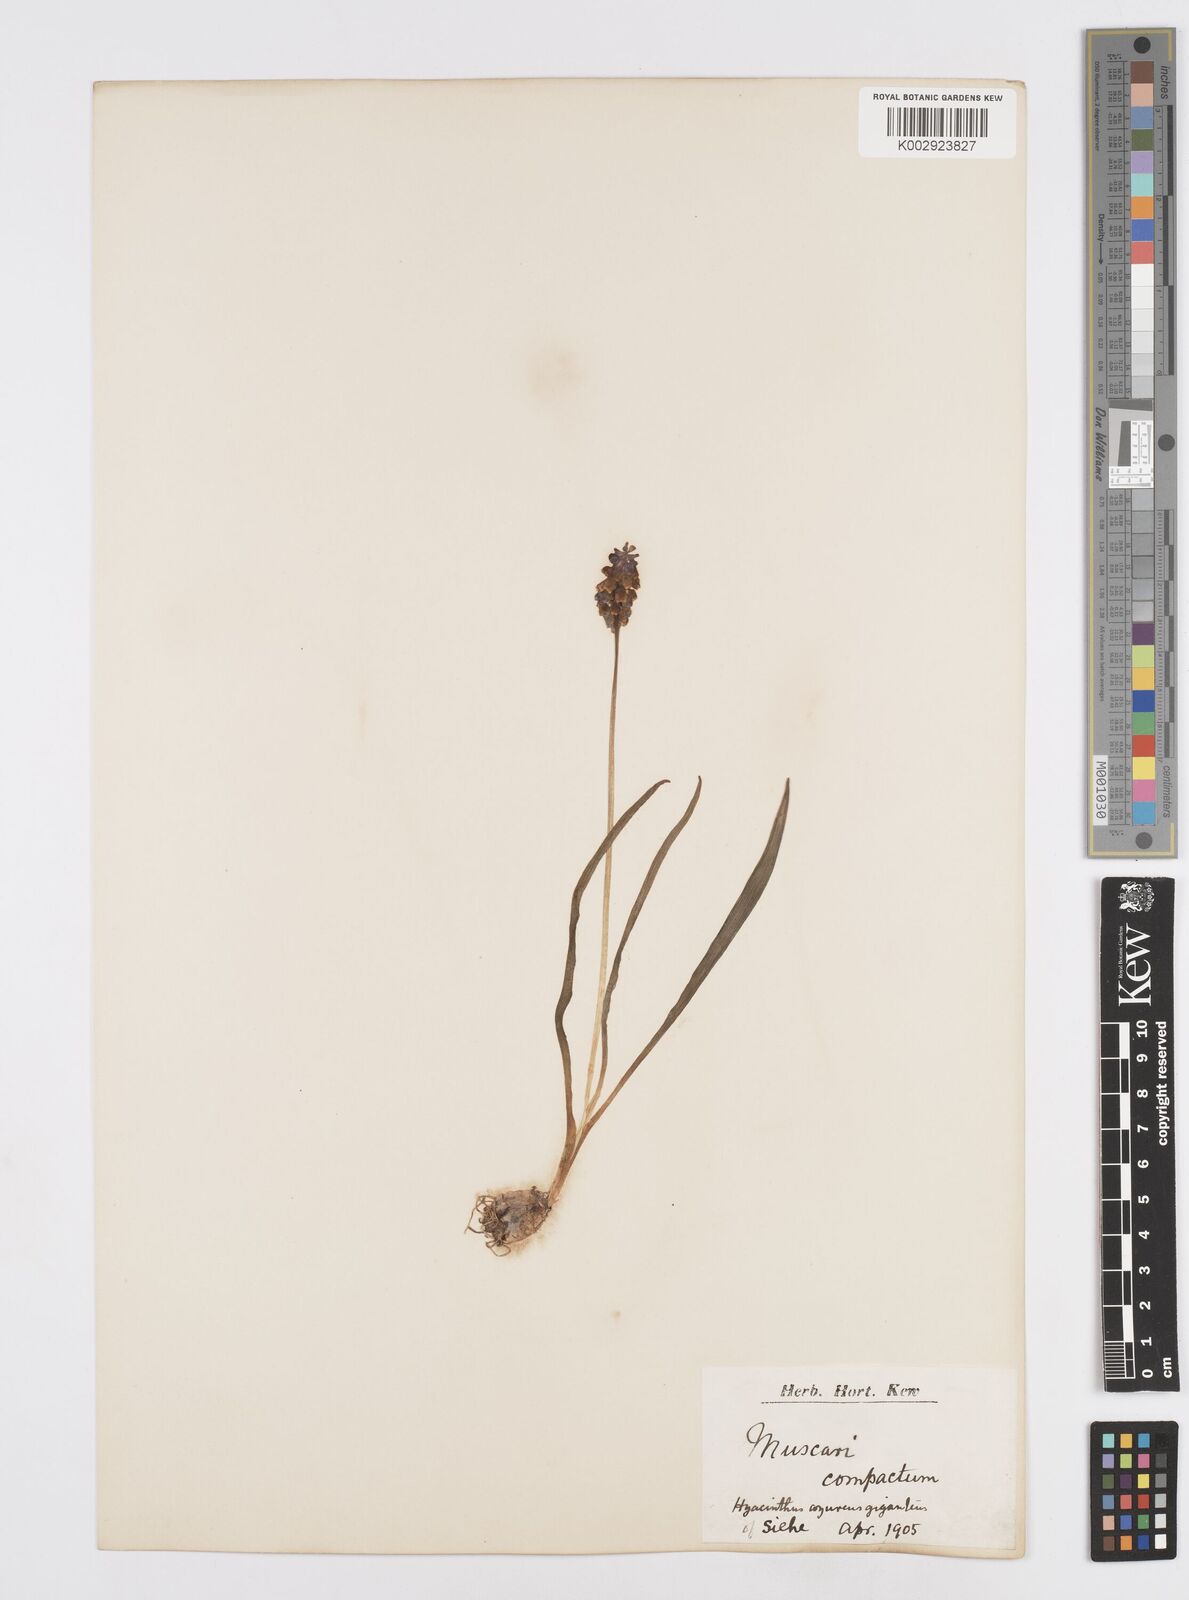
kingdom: Plantae
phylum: Tracheophyta
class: Liliopsida
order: Asparagales
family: Asparagaceae
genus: Muscari
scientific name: Muscari neglectum
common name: Grape-hyacinth
